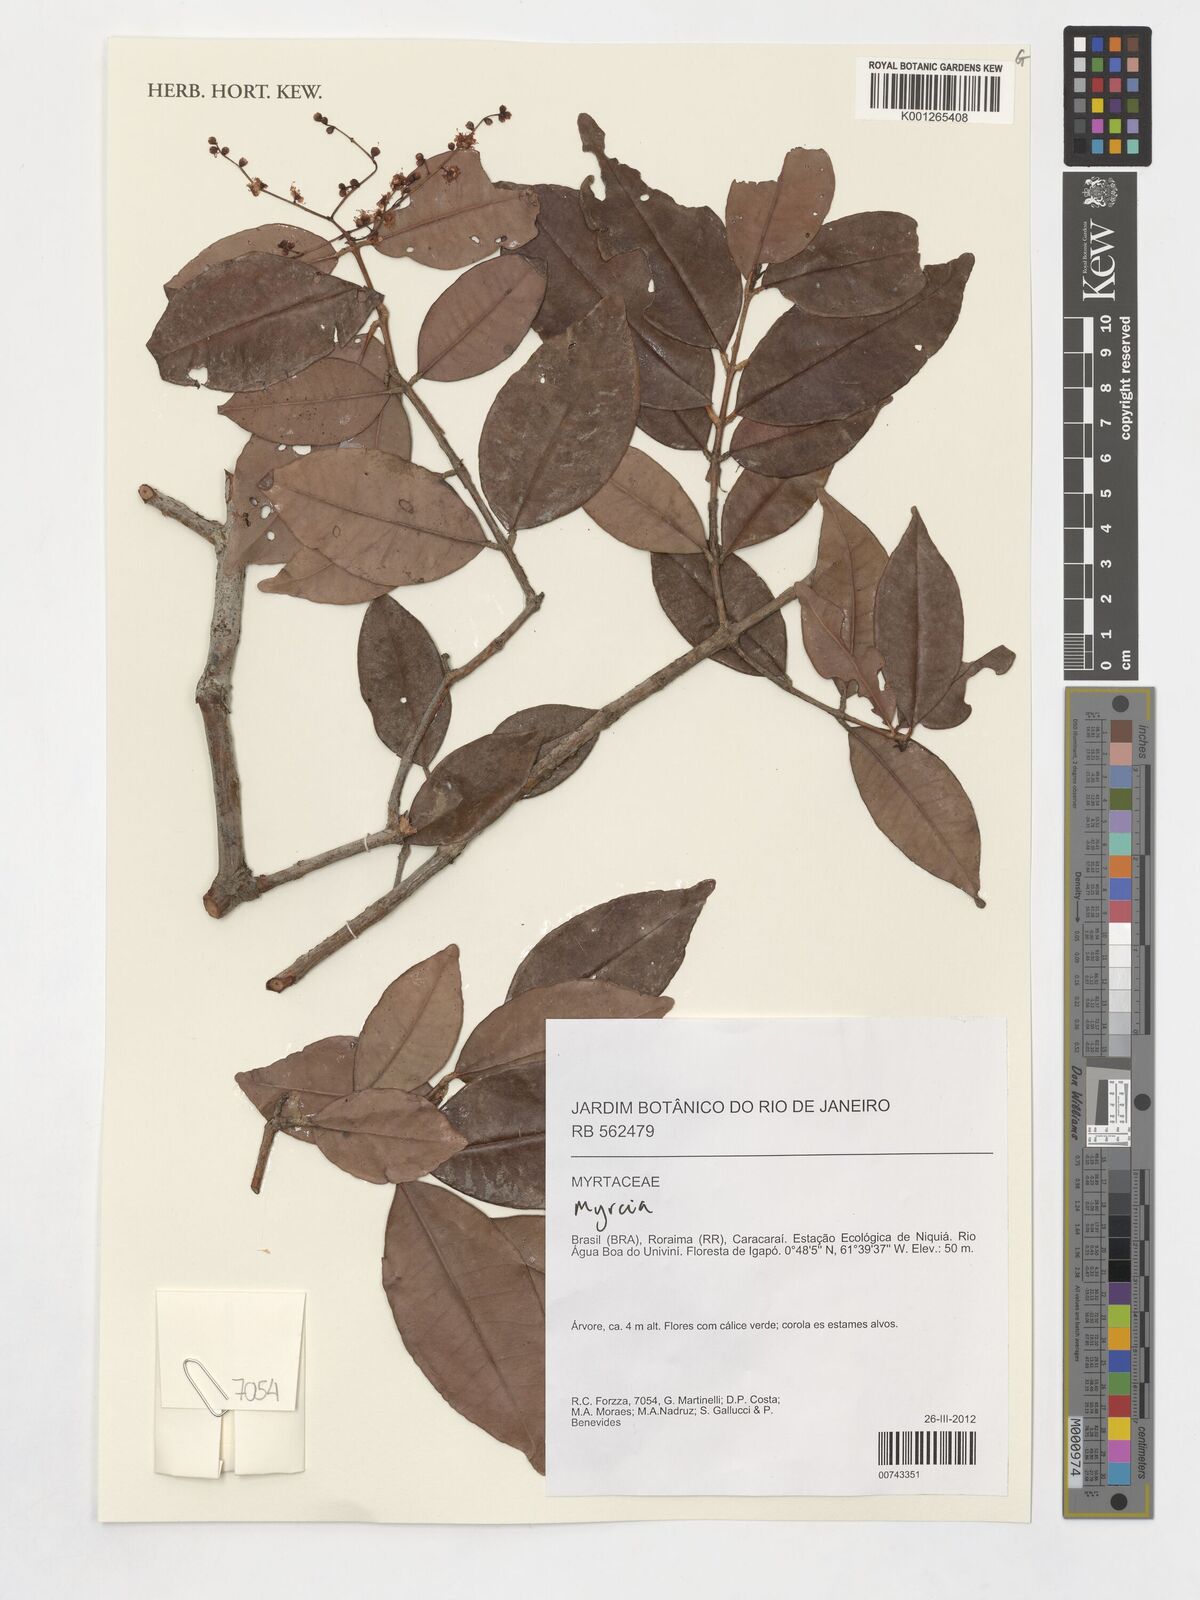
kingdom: Plantae
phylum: Tracheophyta
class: Magnoliopsida
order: Myrtales
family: Myrtaceae
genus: Myrcia
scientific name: Myrcia
